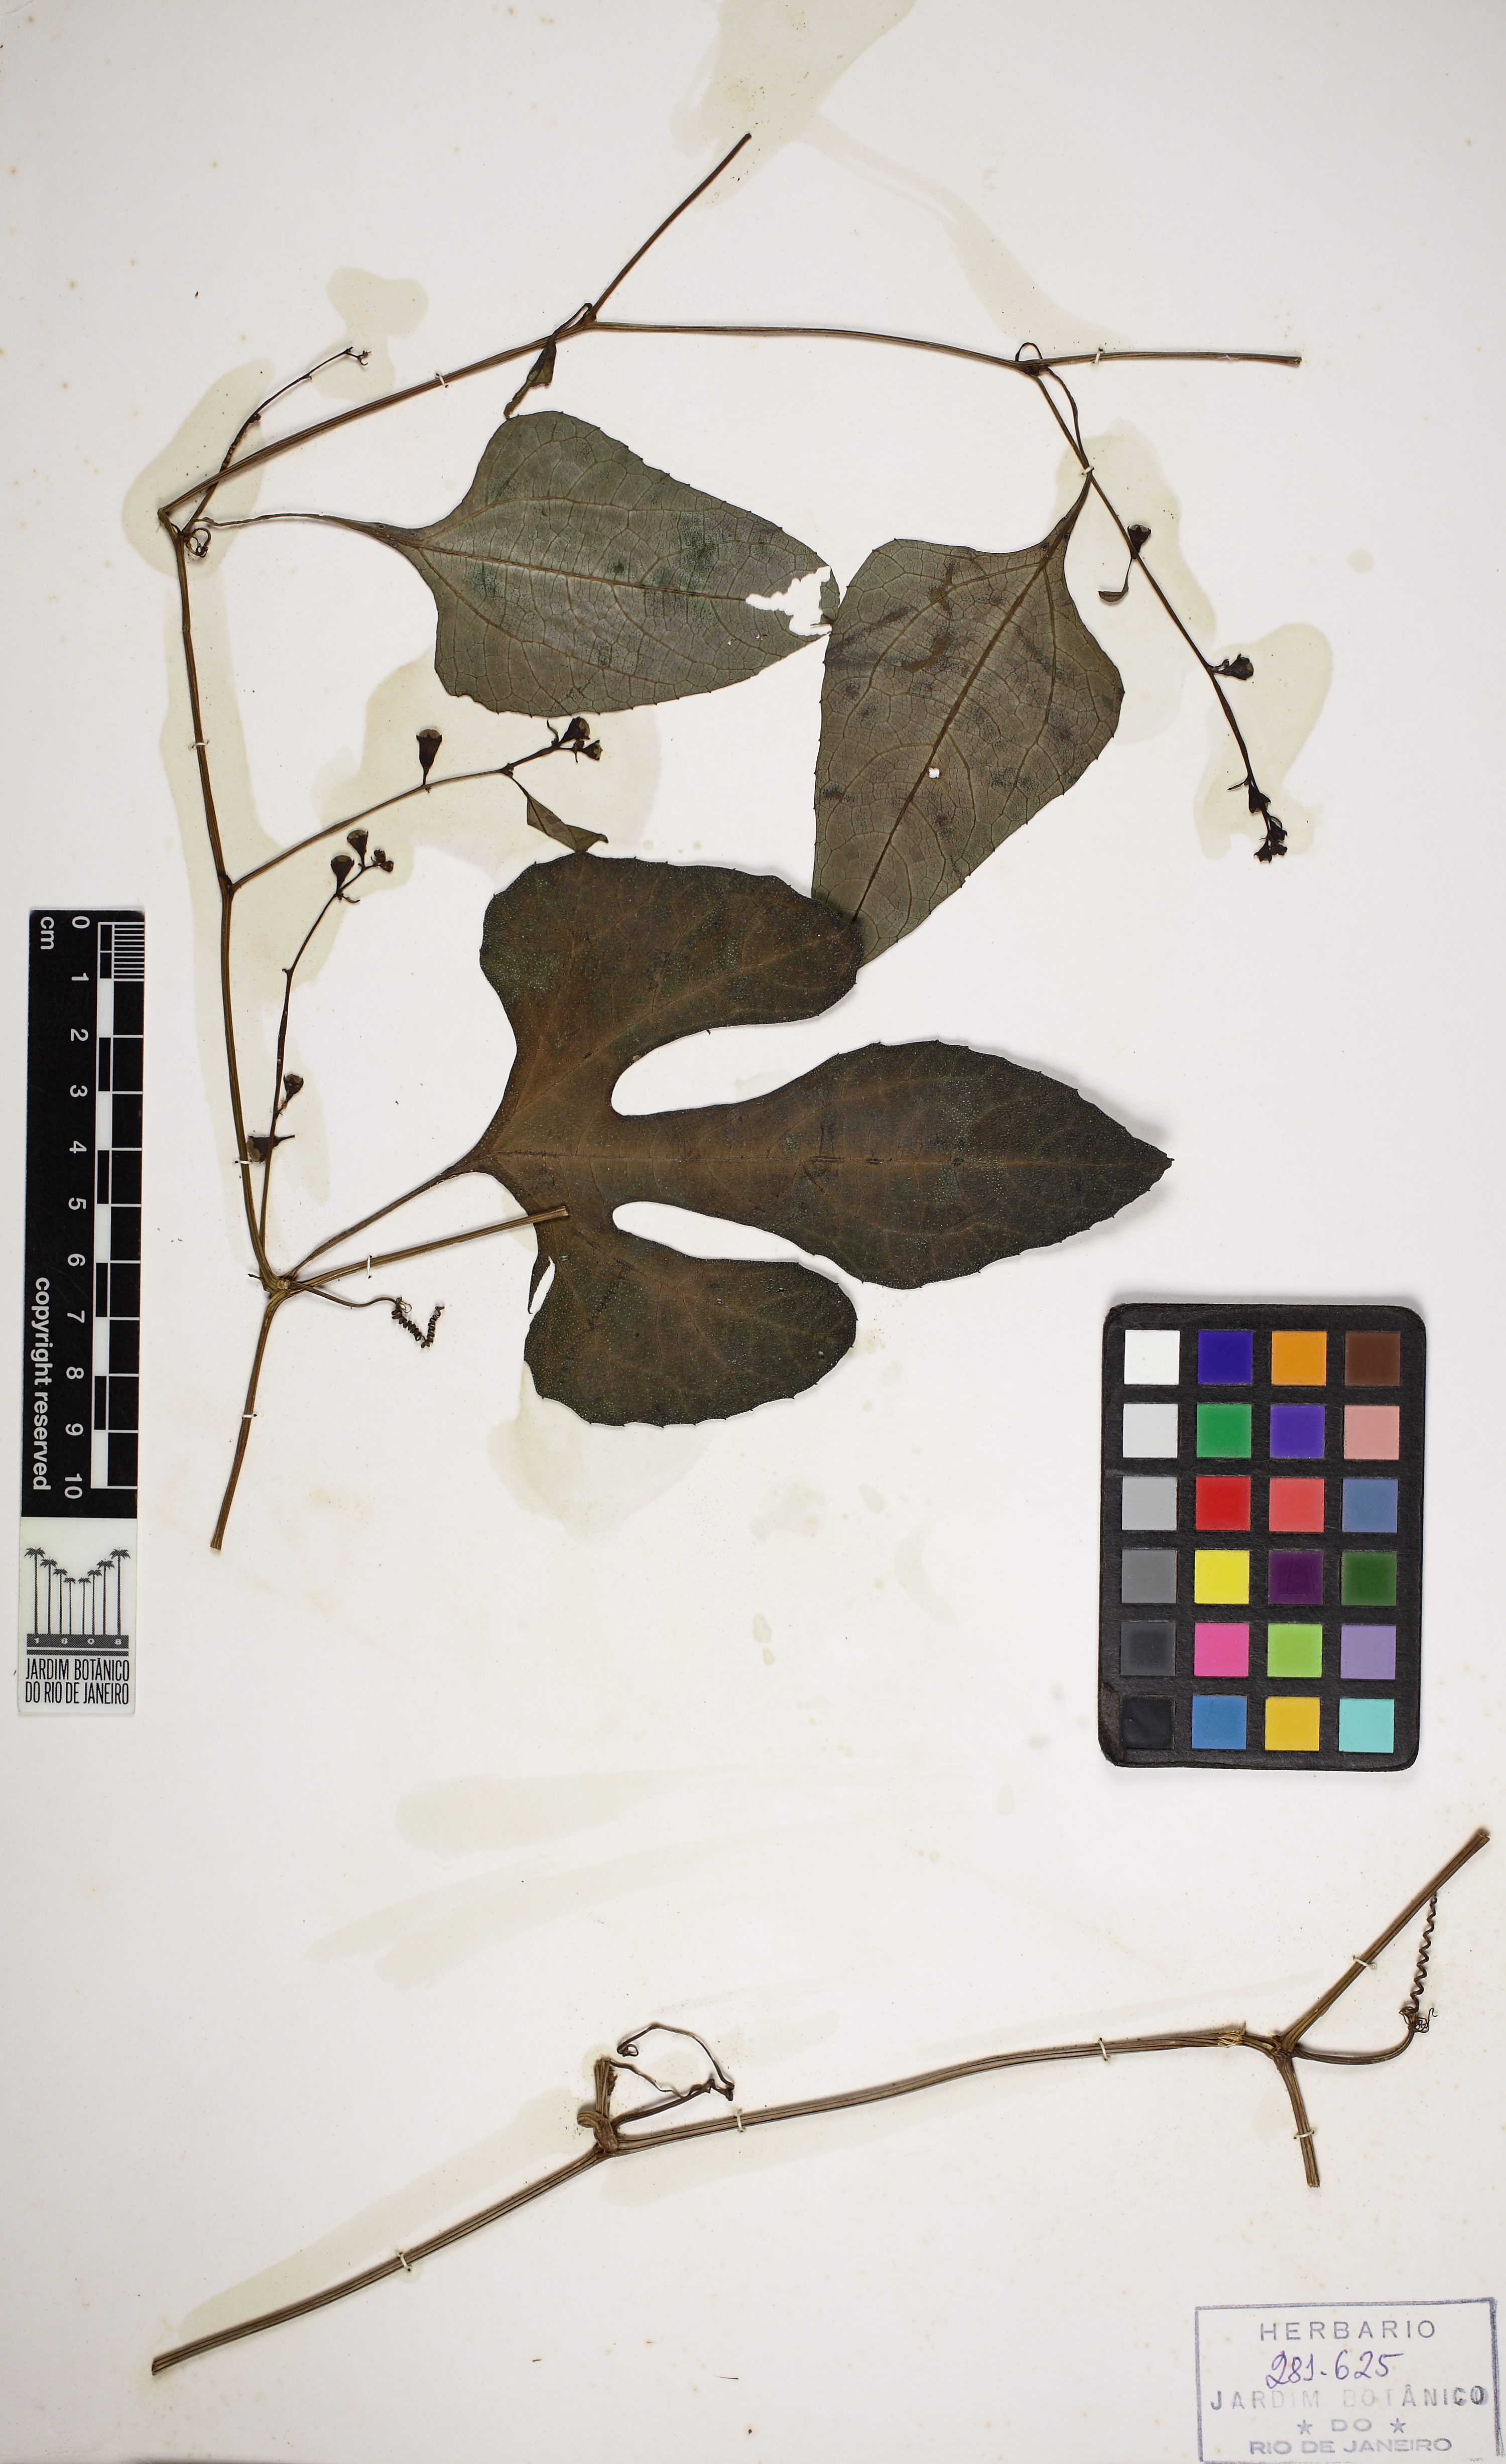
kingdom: Plantae
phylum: Tracheophyta
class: Magnoliopsida
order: Cucurbitales
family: Cucurbitaceae
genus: Cayaponia
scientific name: Cayaponia tayuya
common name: Tayuya
